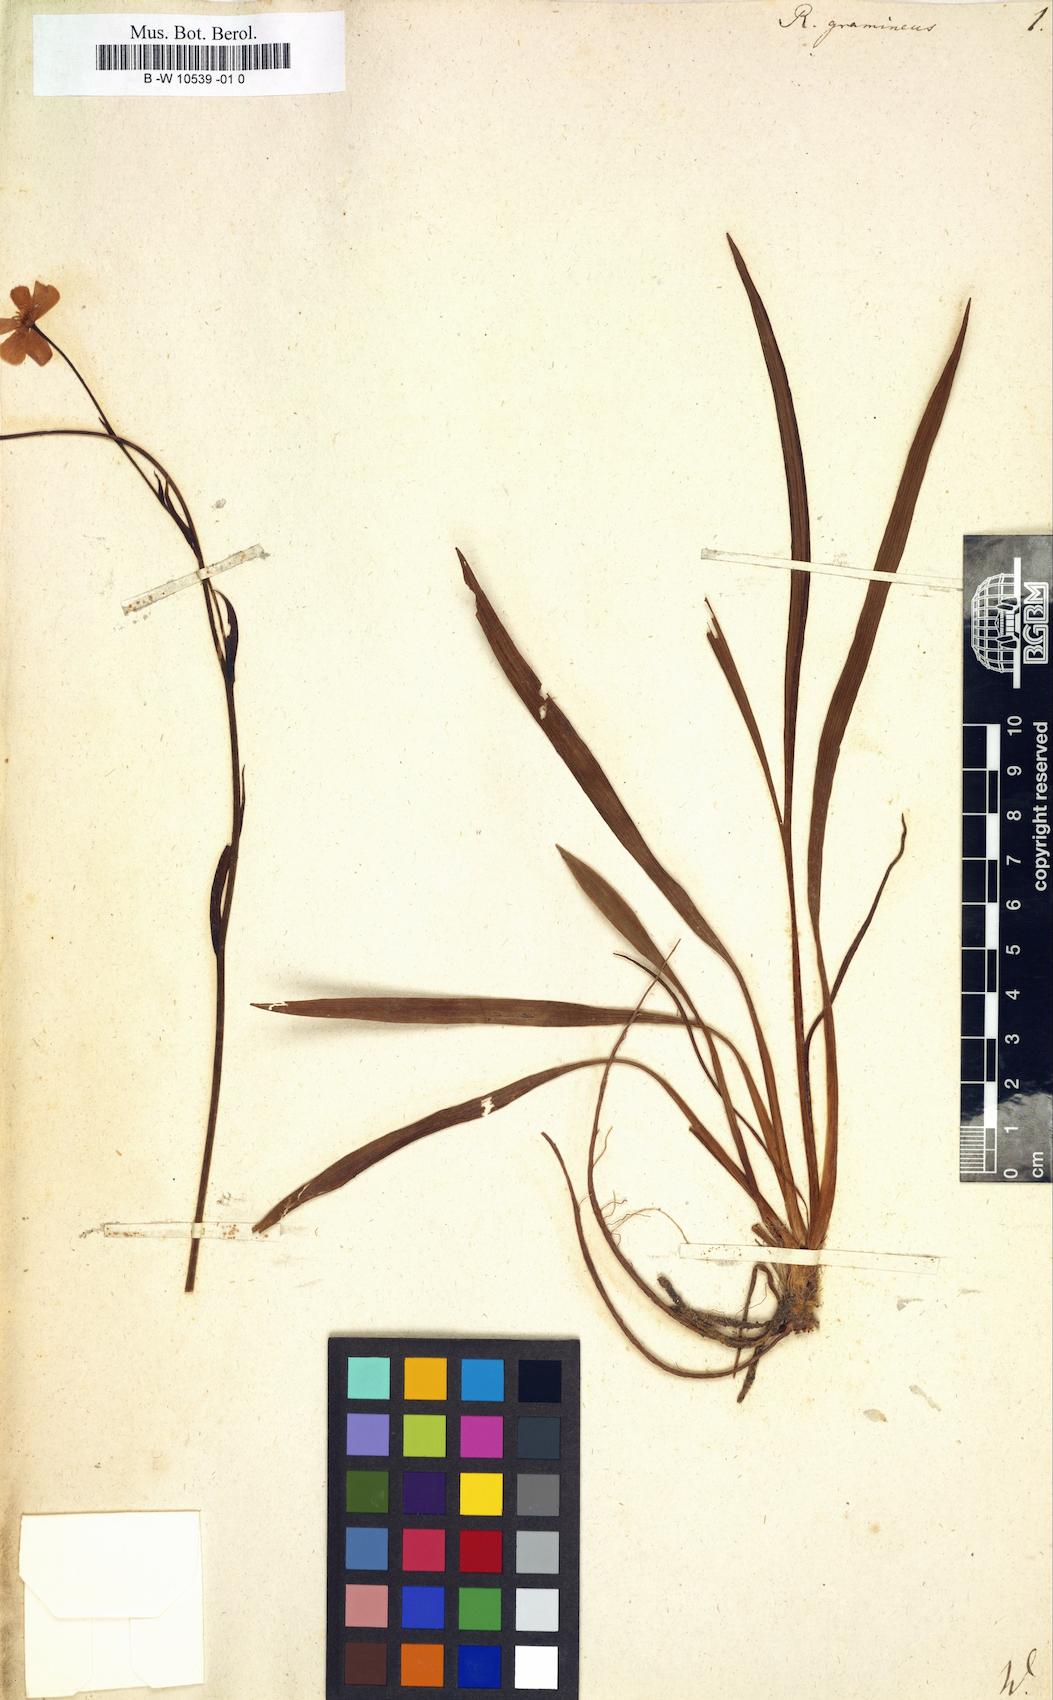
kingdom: Plantae
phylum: Tracheophyta
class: Magnoliopsida
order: Ranunculales
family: Ranunculaceae
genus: Ranunculus
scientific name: Ranunculus gramineus
